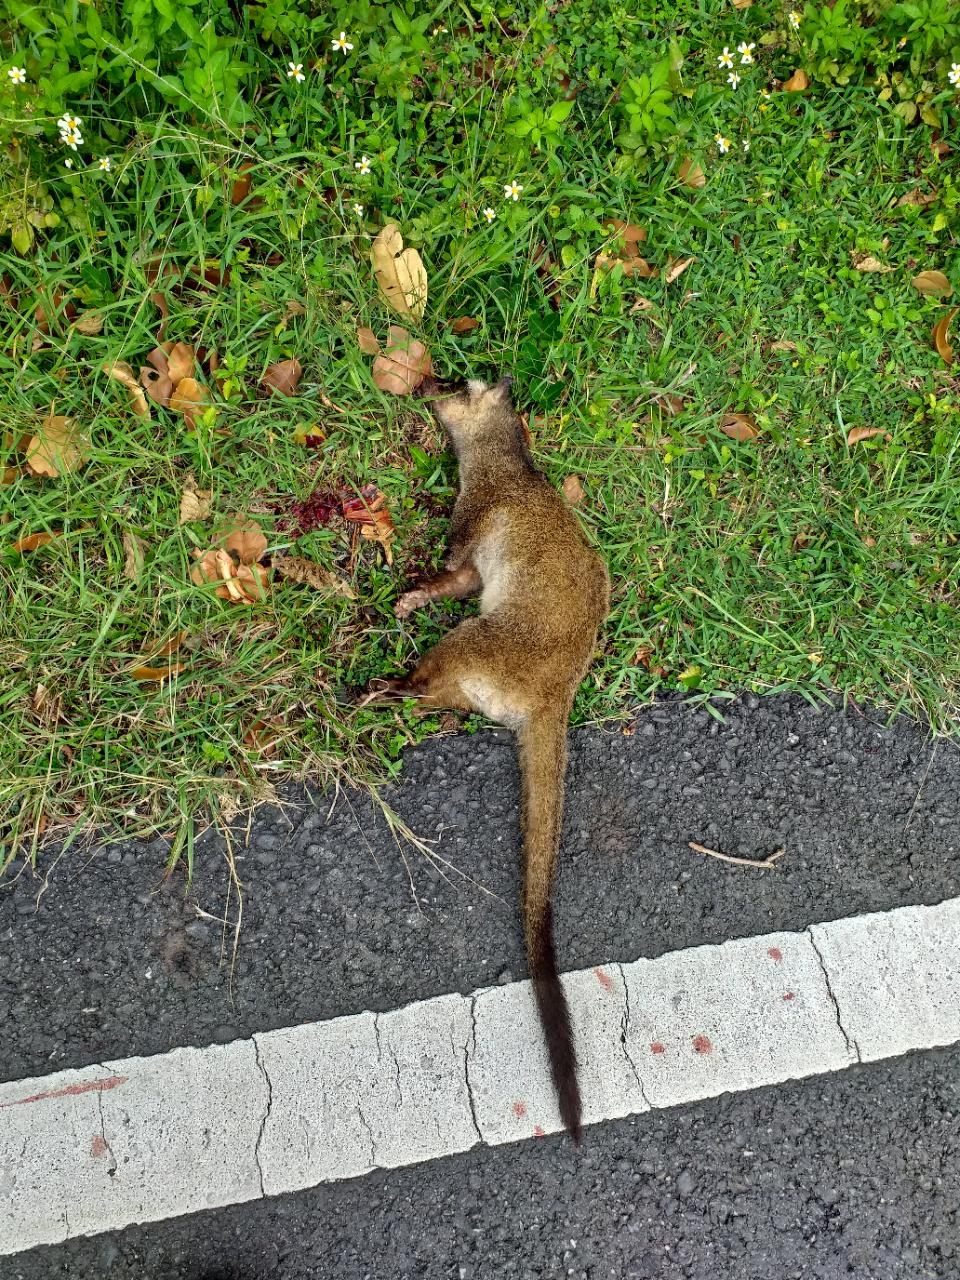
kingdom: Animalia
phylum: Chordata
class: Mammalia
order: Carnivora
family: Viverridae
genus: Paguma
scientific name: Paguma larvata
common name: Masked palm civet
